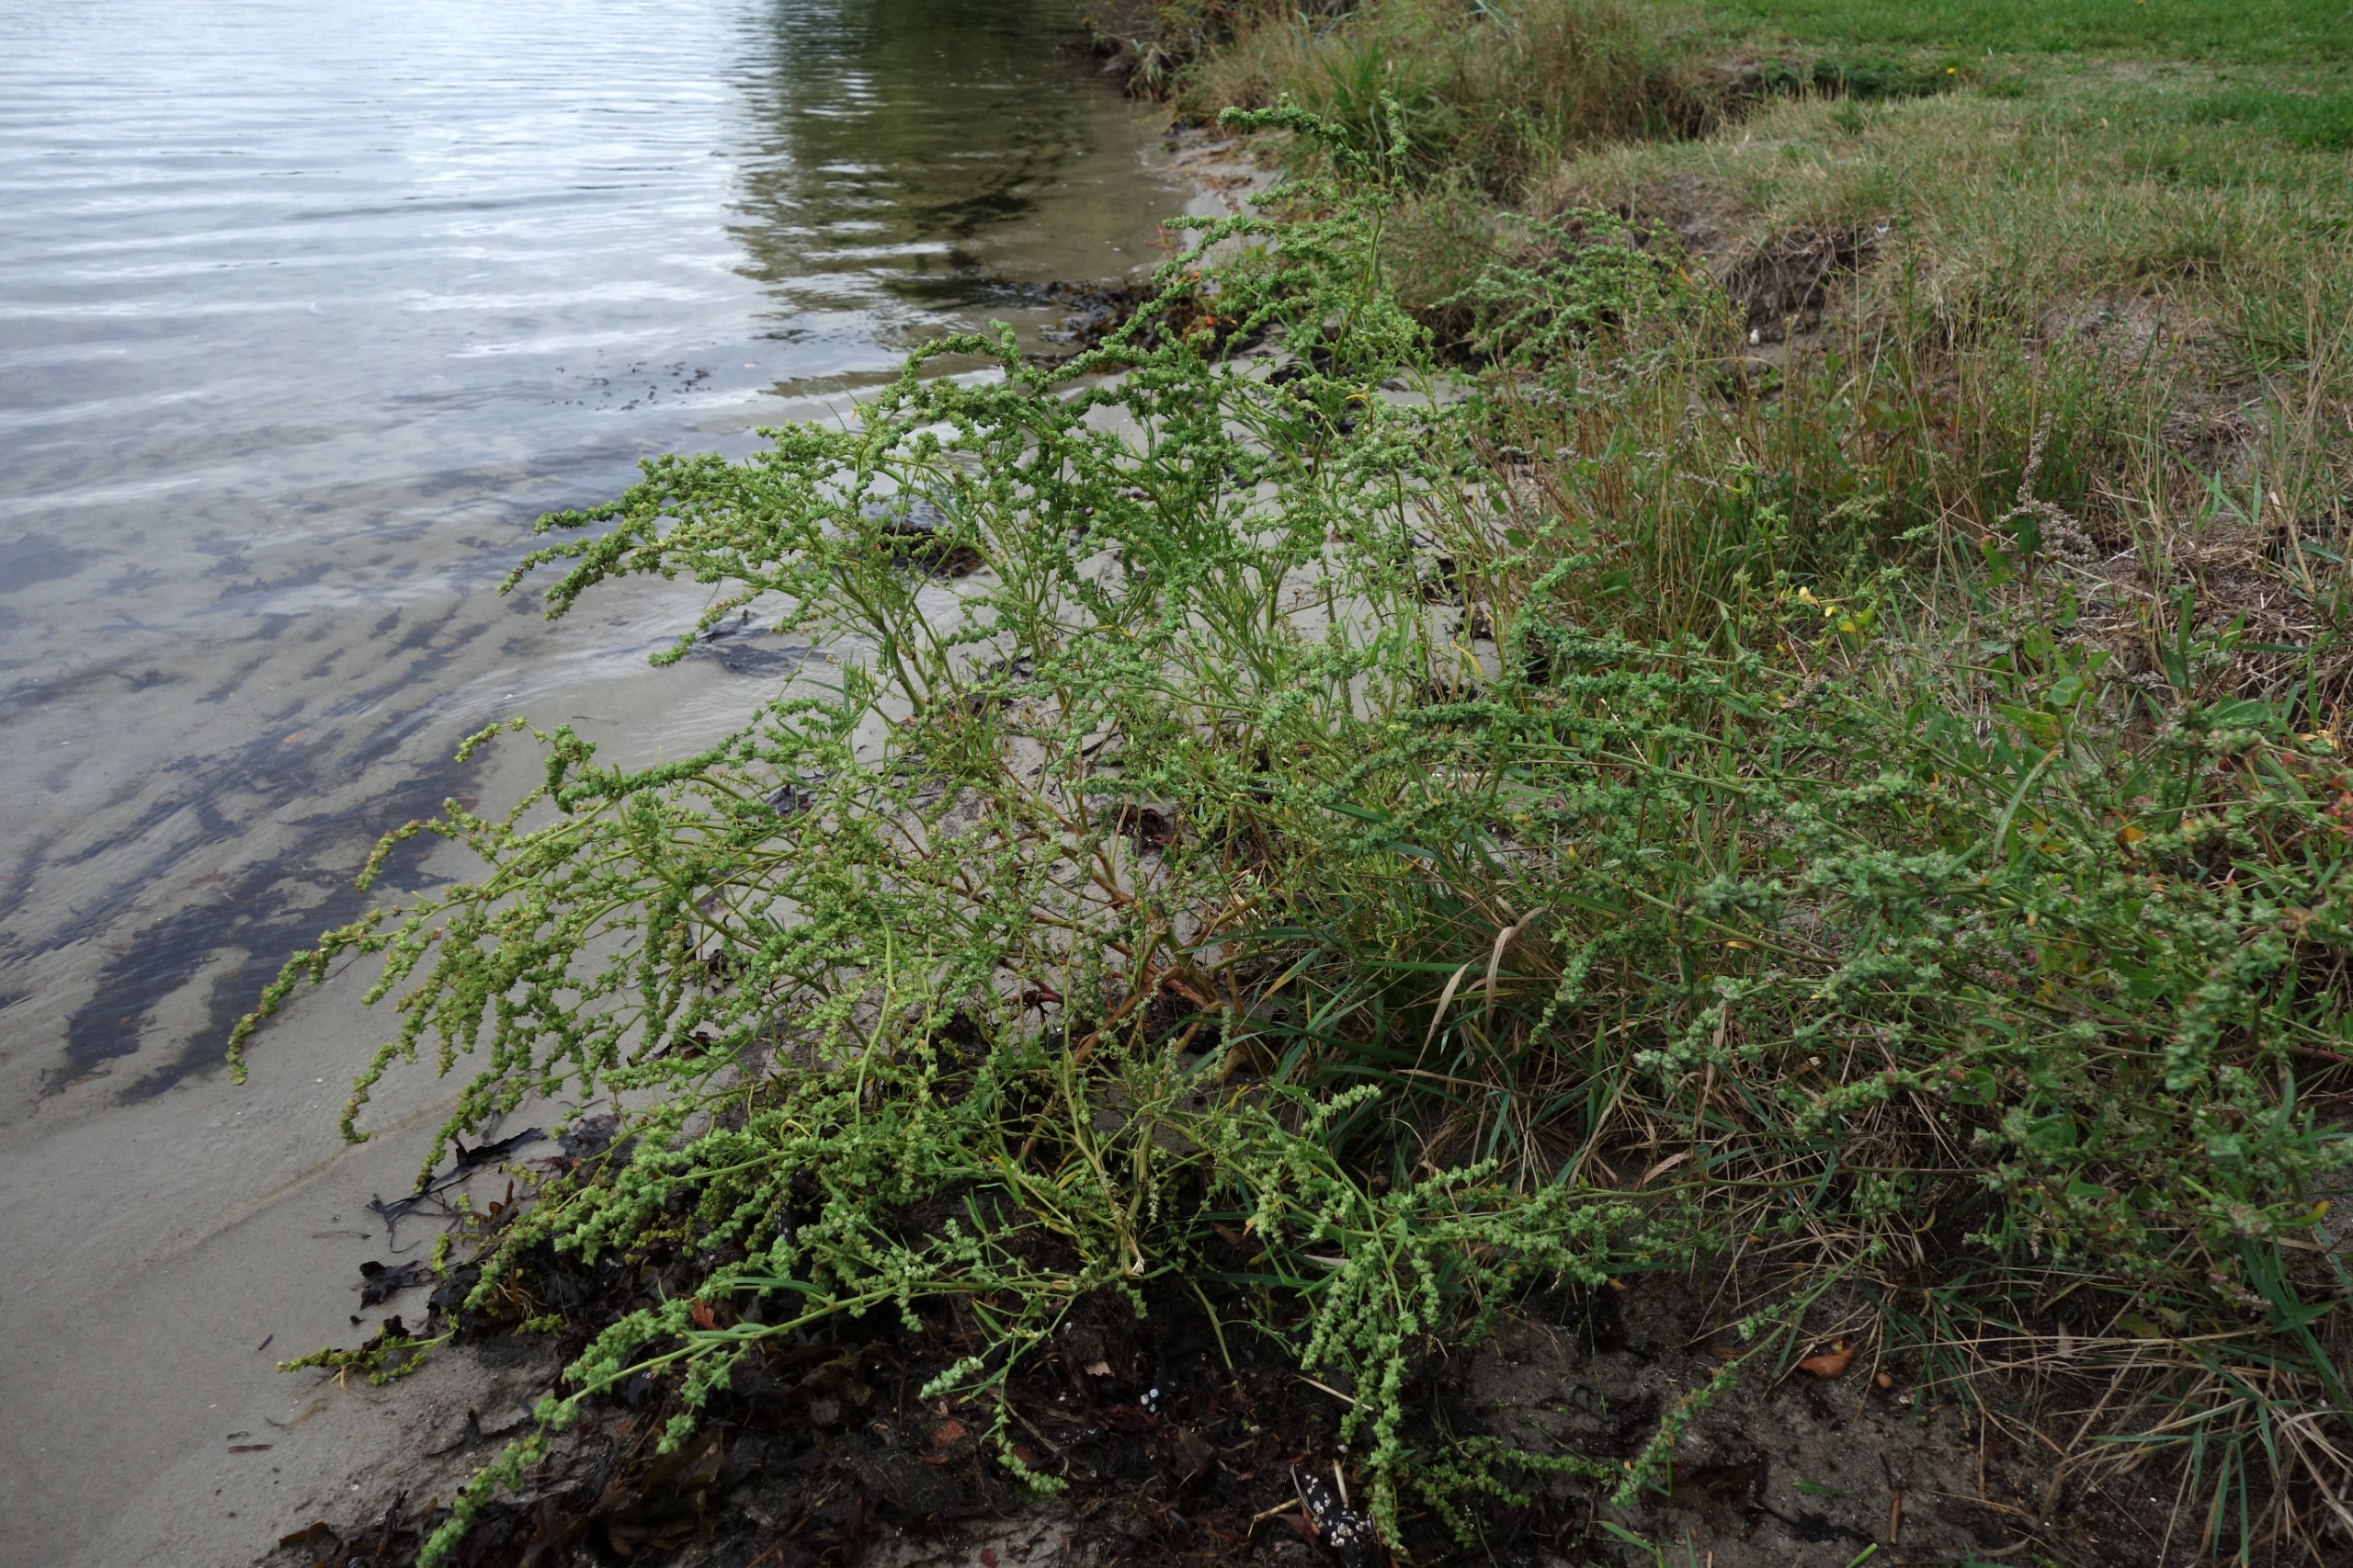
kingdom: Plantae
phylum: Tracheophyta
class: Magnoliopsida
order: Caryophyllales
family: Amaranthaceae
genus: Atriplex
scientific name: Atriplex littoralis
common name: Strand-mælde
